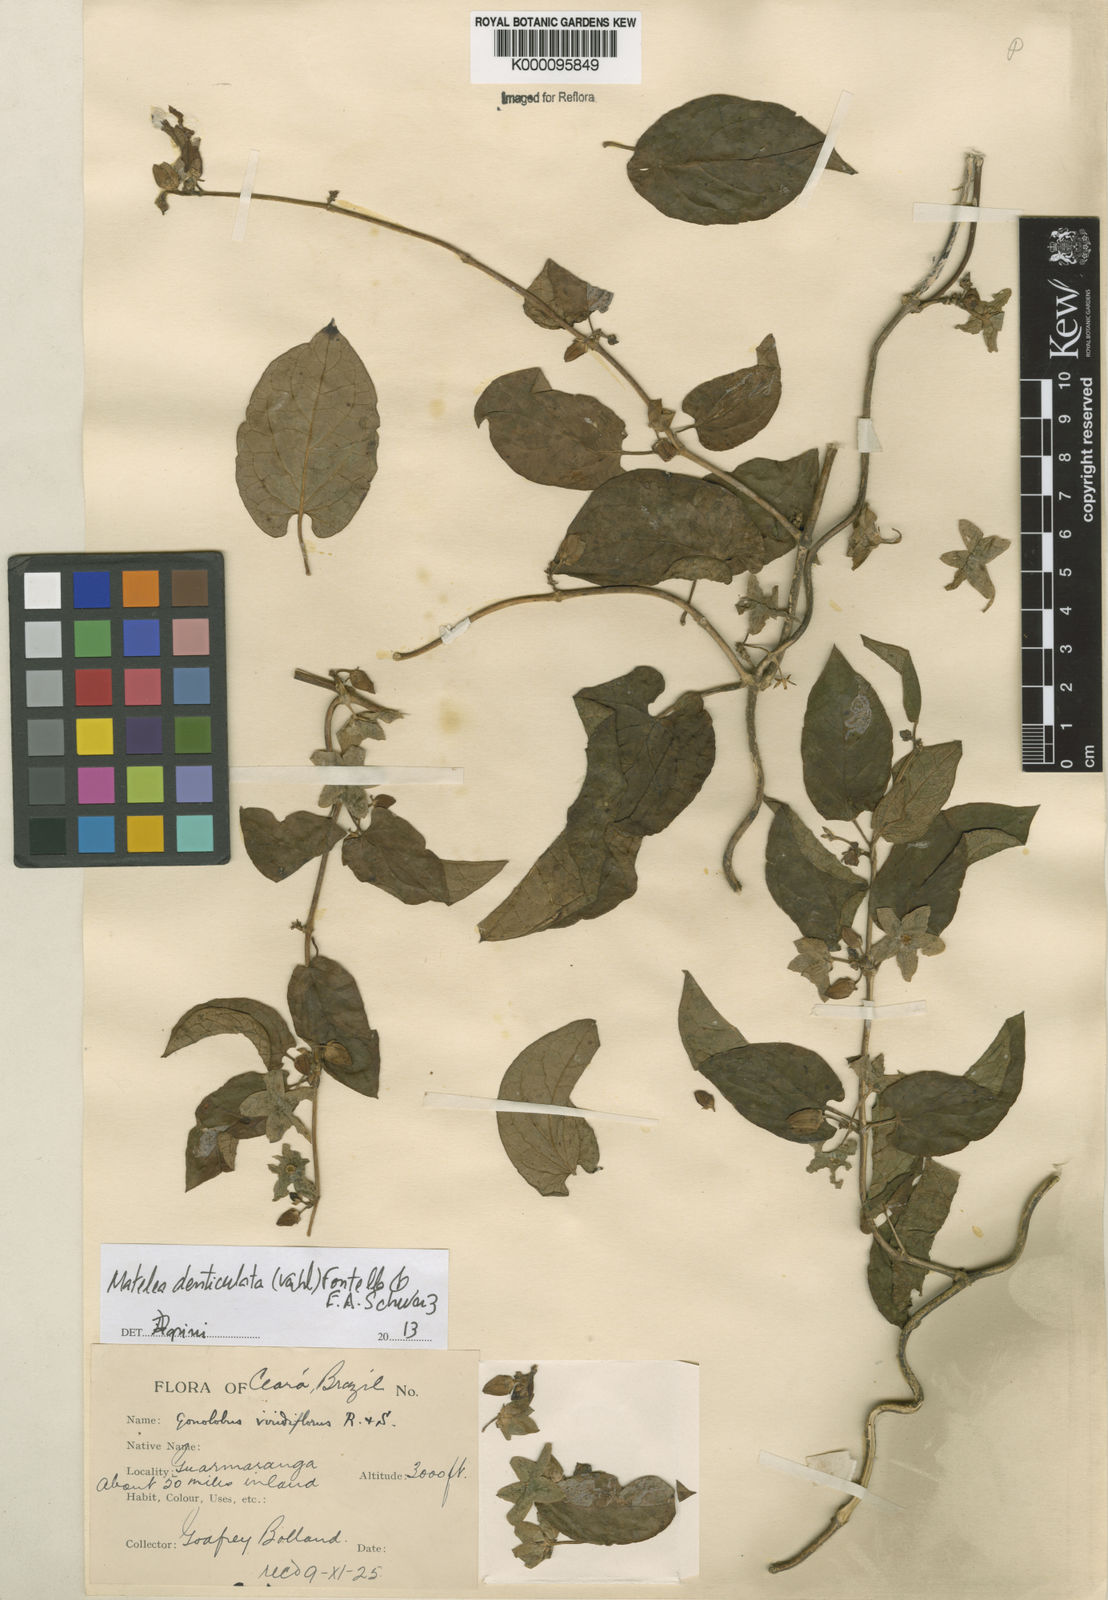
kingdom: Plantae
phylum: Tracheophyta
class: Magnoliopsida
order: Gentianales
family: Apocynaceae
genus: Chloropetalum
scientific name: Chloropetalum denticulatum
